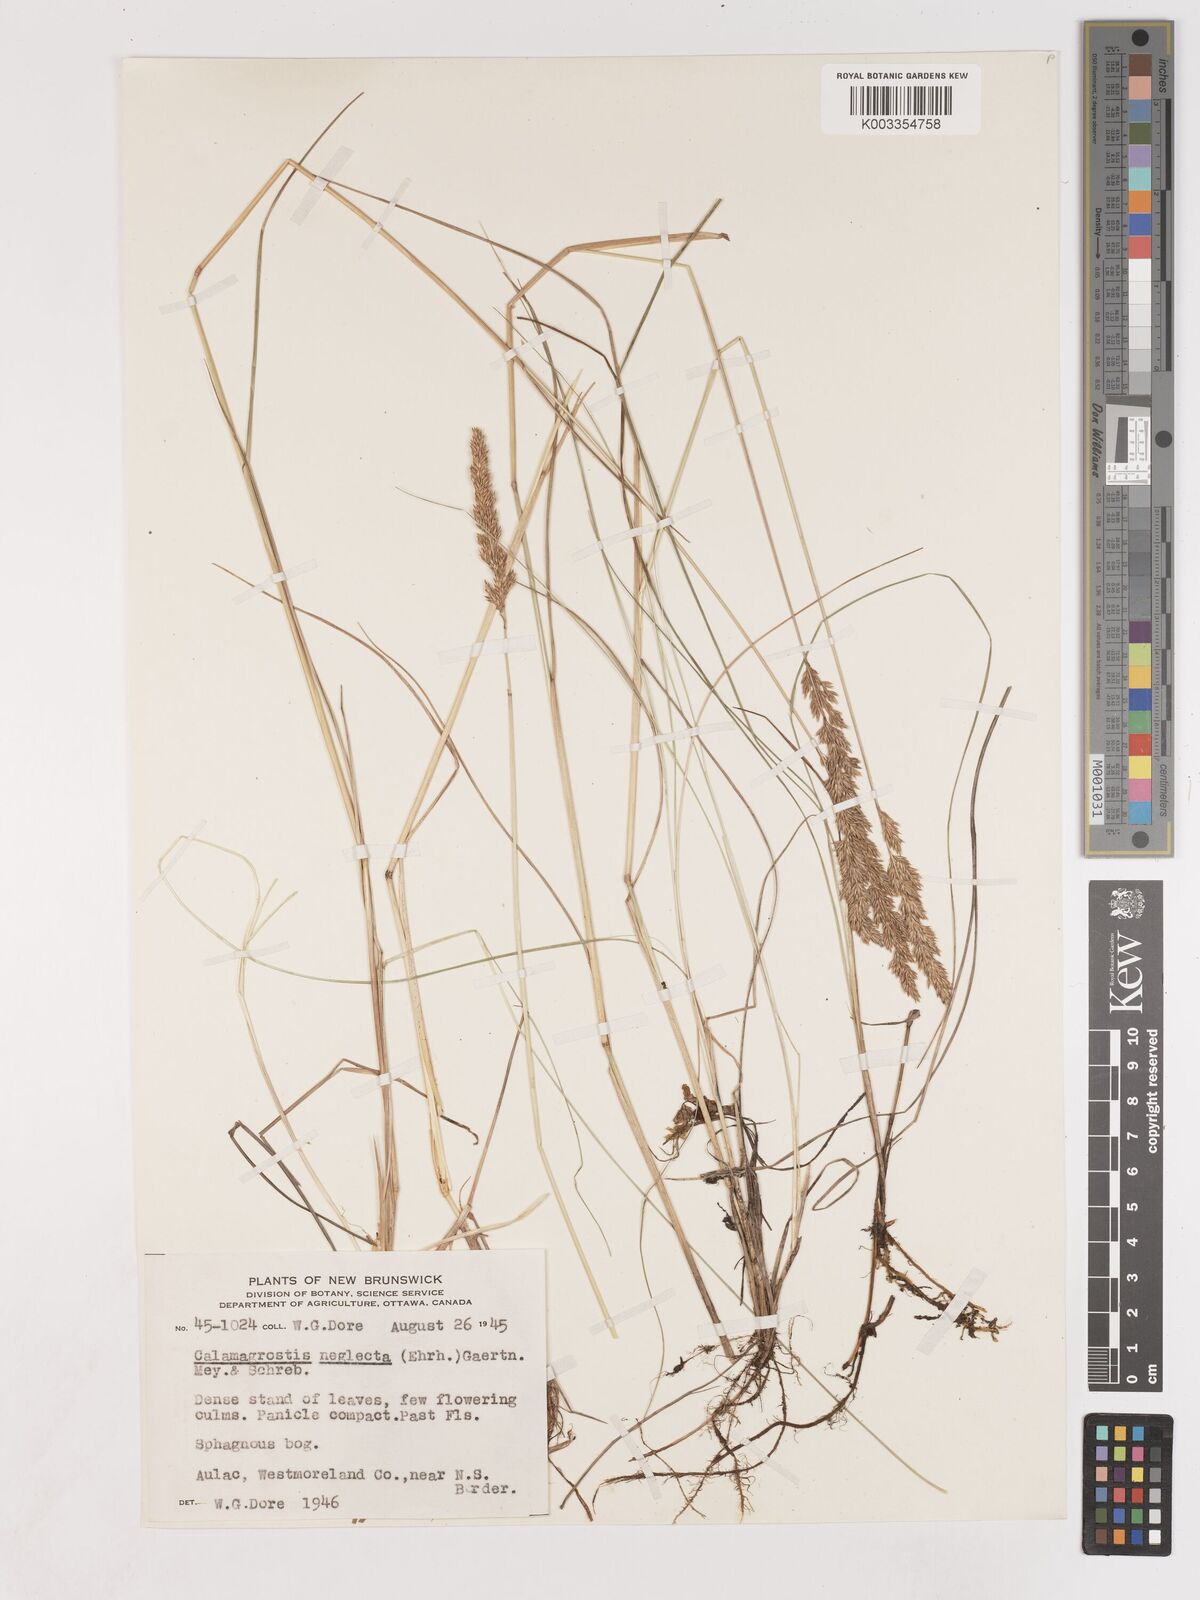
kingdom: Plantae
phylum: Tracheophyta
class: Liliopsida
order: Poales
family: Poaceae
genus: Cinnagrostis
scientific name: Cinnagrostis recta
